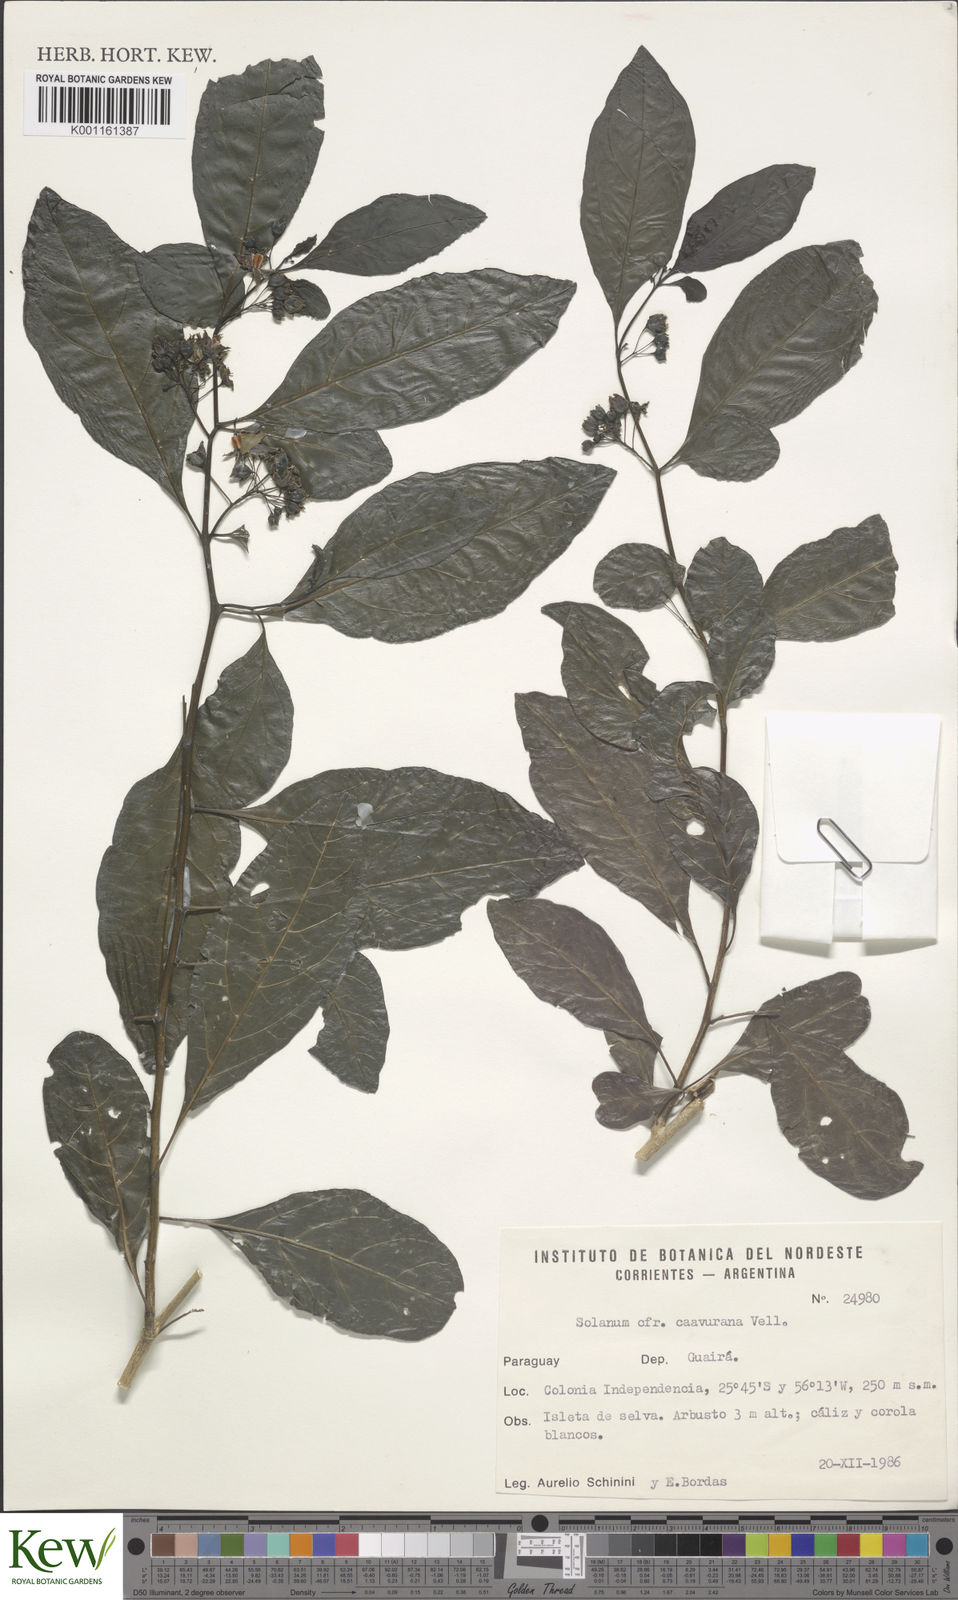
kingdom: Plantae
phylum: Tracheophyta
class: Magnoliopsida
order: Solanales
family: Solanaceae
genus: Solanum
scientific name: Solanum caavurana
